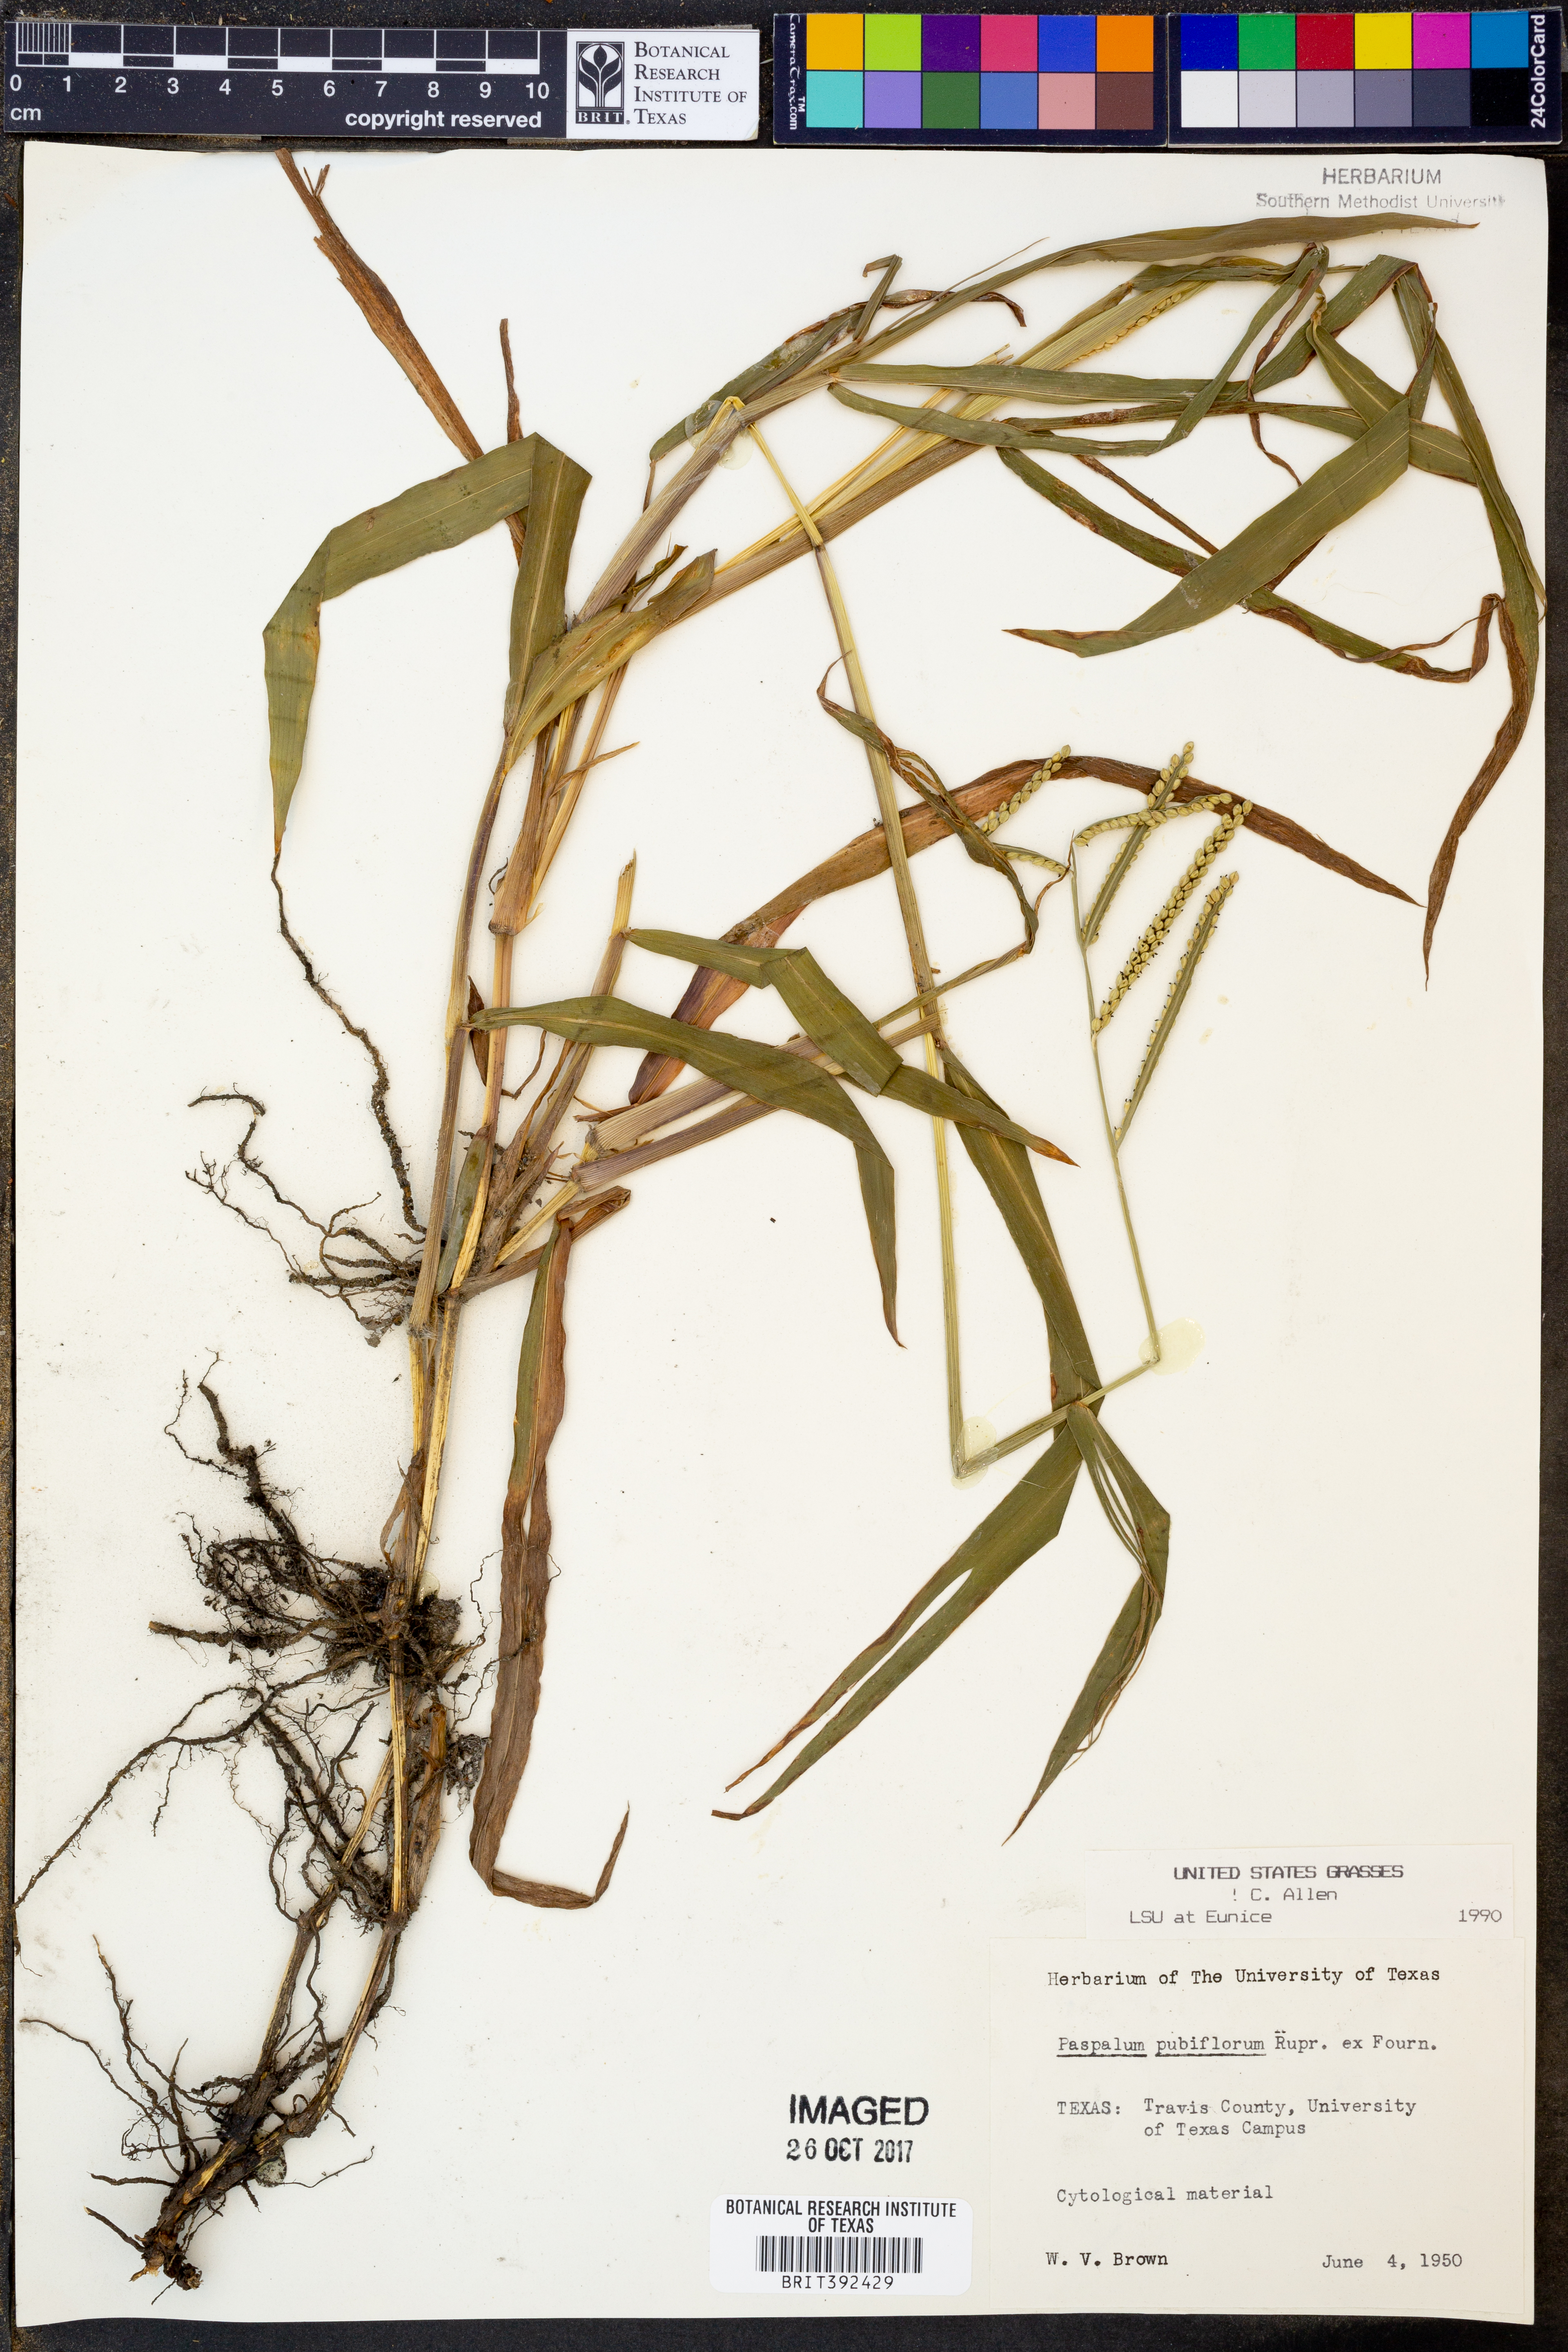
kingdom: Plantae
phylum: Tracheophyta
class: Liliopsida
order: Poales
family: Poaceae
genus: Paspalum
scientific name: Paspalum pubiflorum
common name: Hairy-seed paspalum
